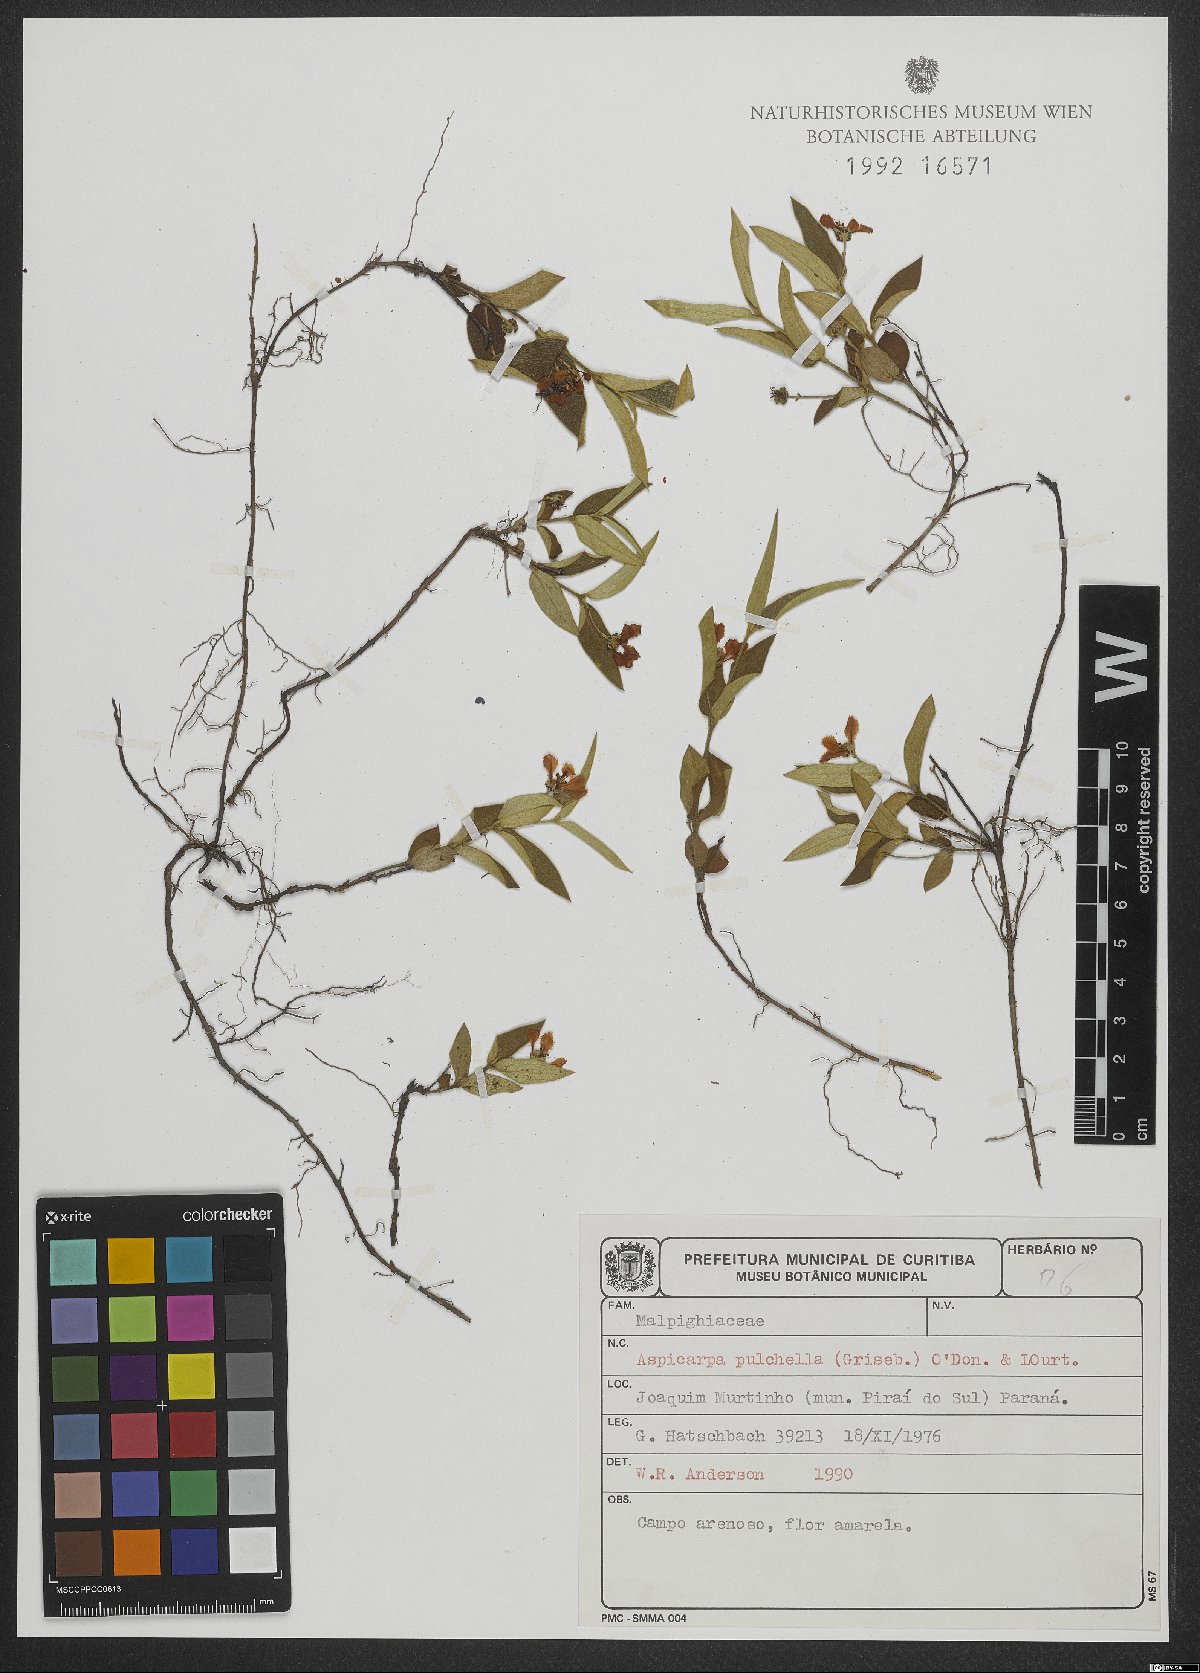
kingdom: Plantae
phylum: Tracheophyta
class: Magnoliopsida
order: Malpighiales
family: Malpighiaceae
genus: Aspicarpa
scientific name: Aspicarpa pulchella
